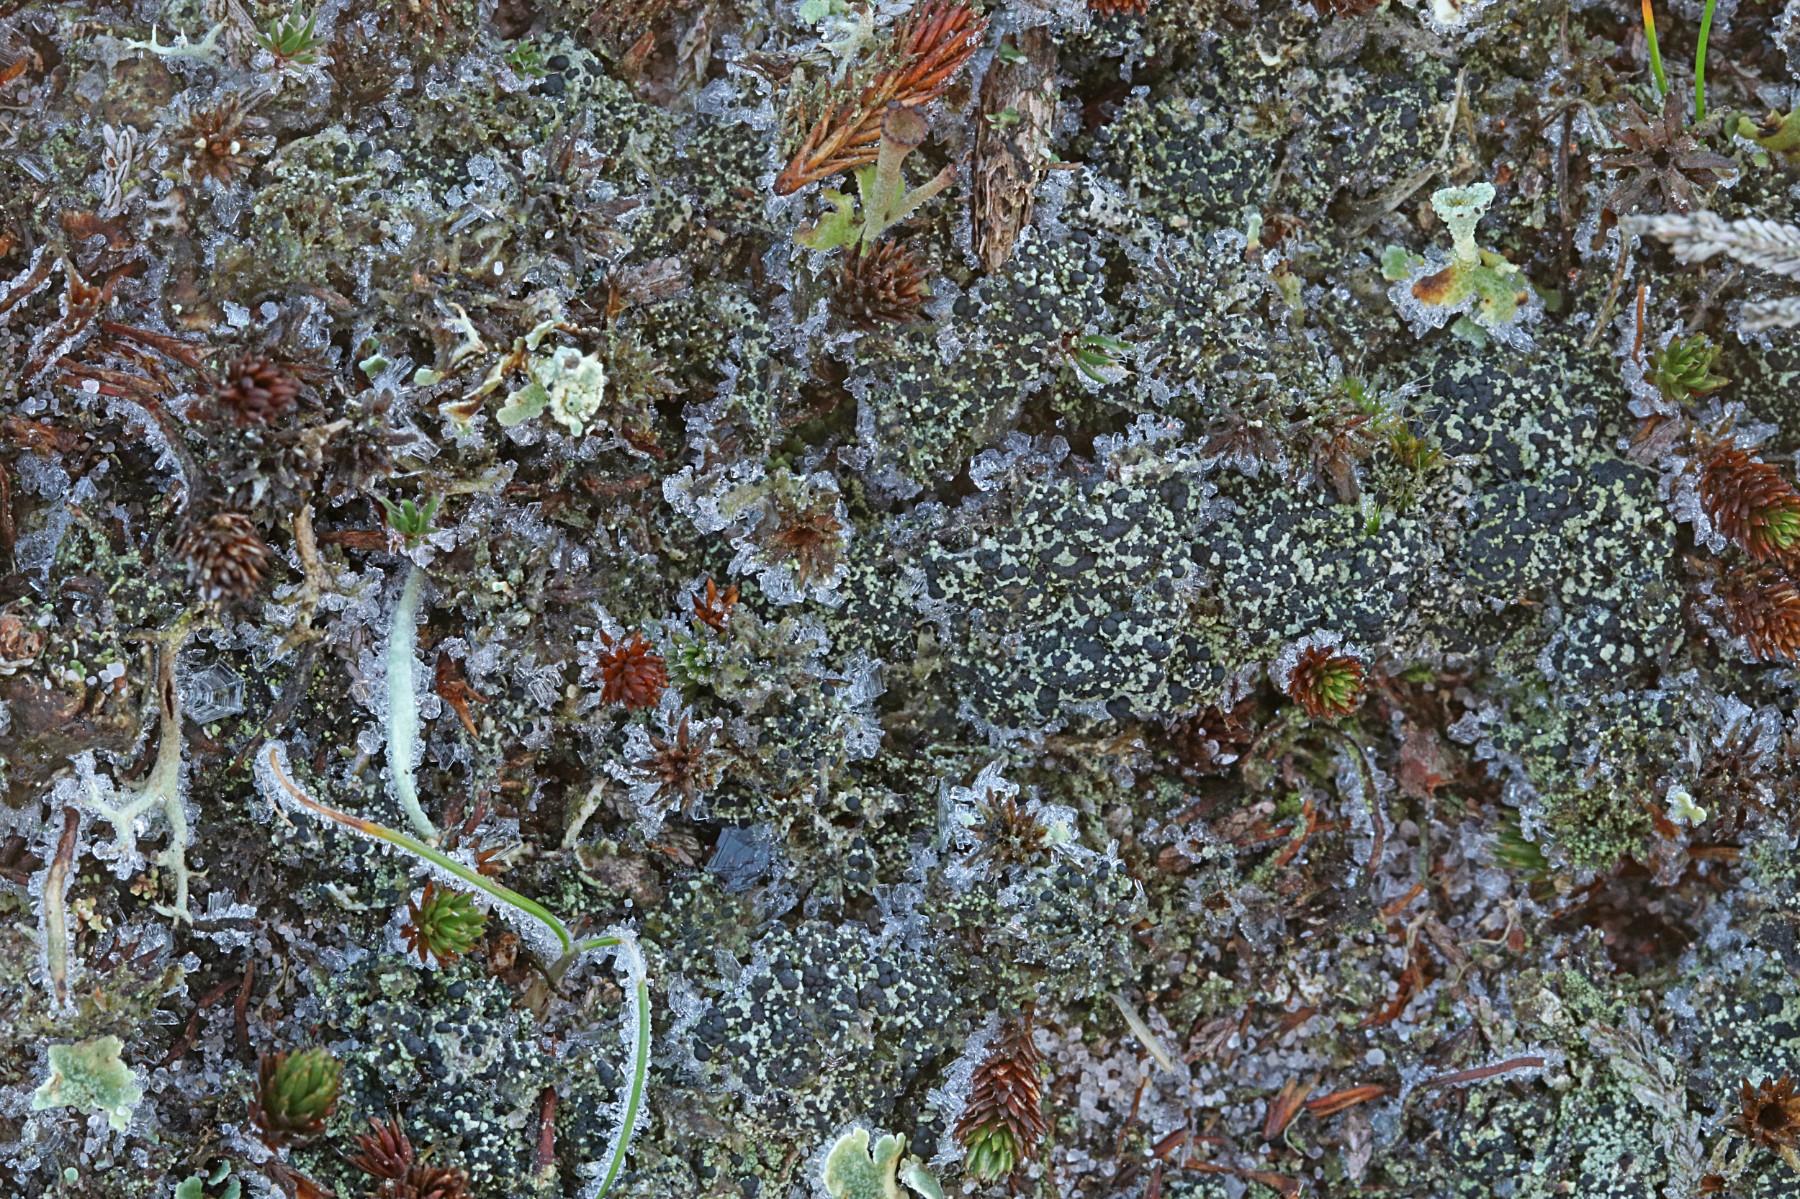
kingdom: Fungi
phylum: Ascomycota
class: Lecanoromycetes
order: Lecanorales
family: Byssolomataceae
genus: Micarea
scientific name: Micarea lignaria
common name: tørve-knaplav
